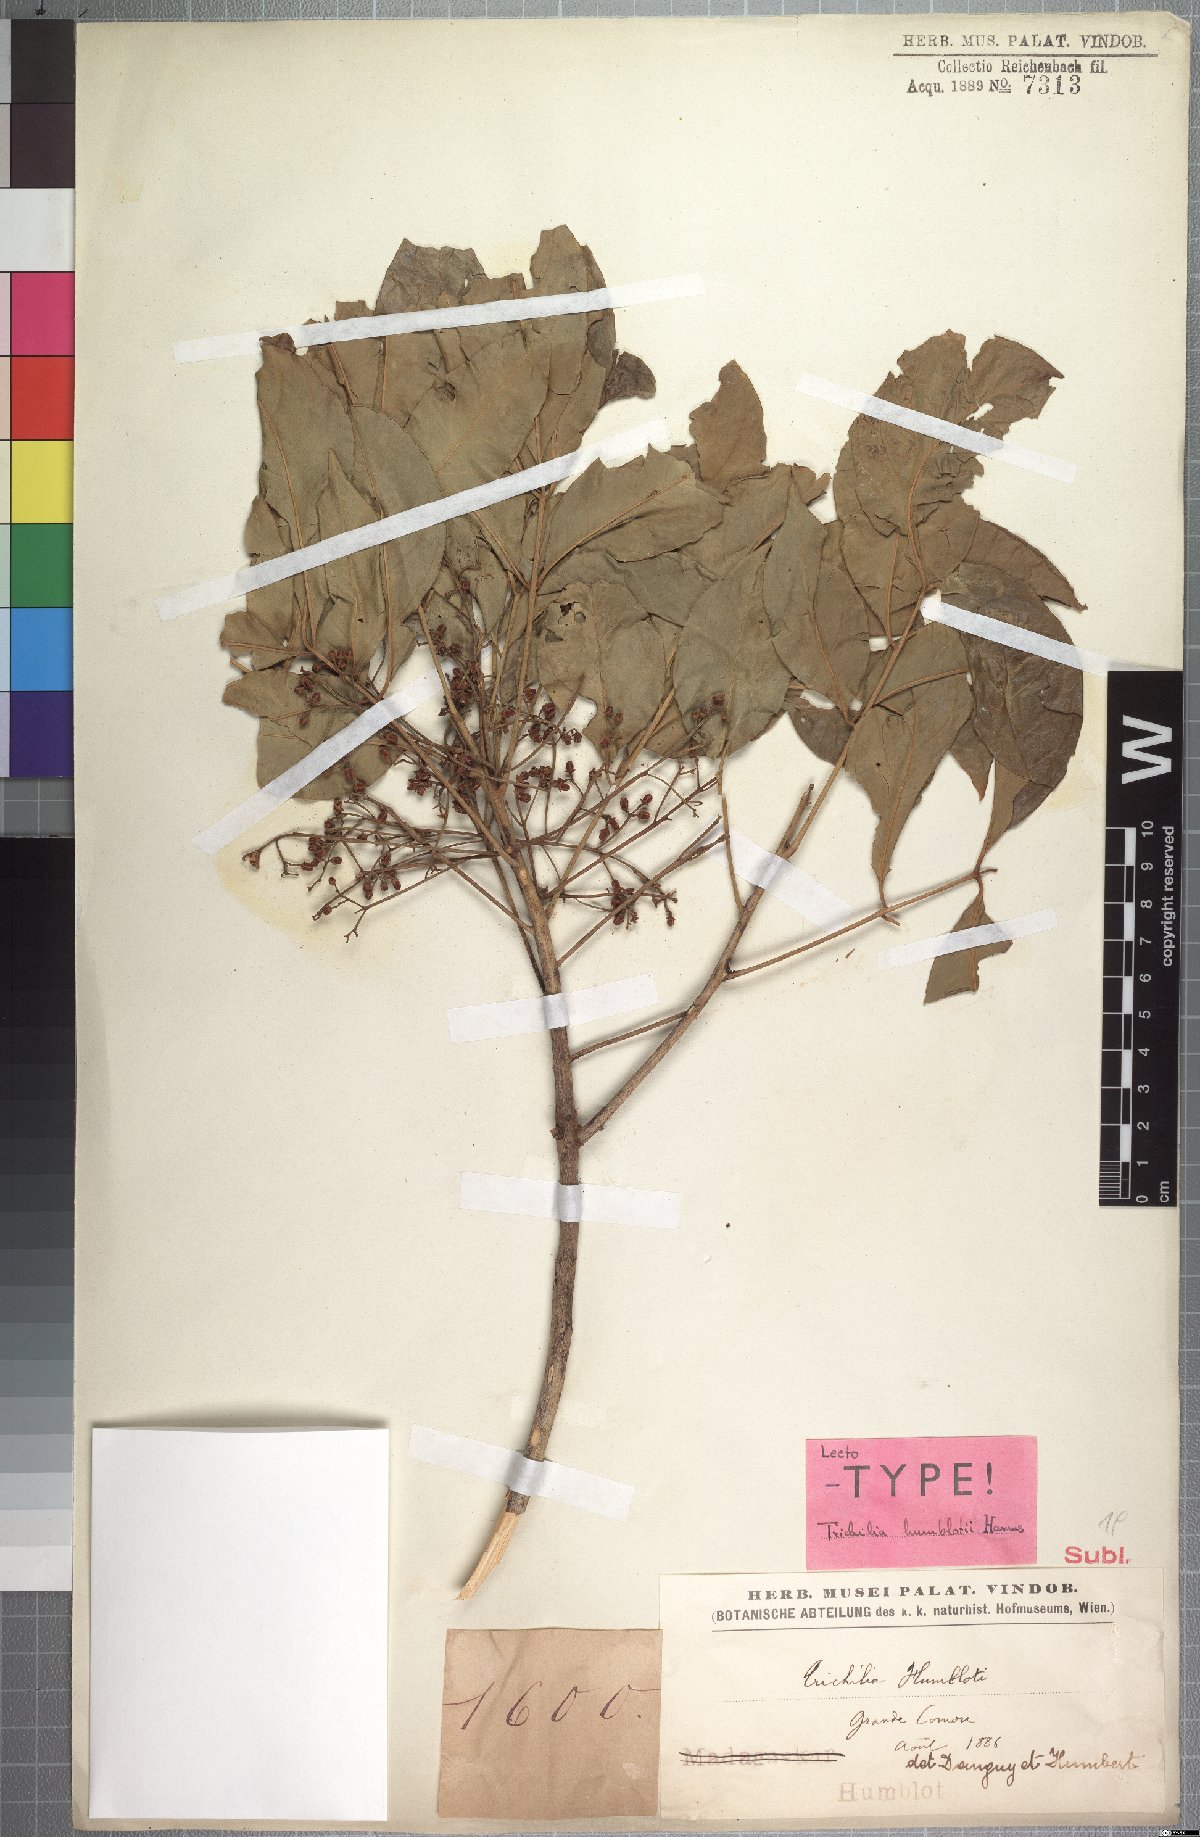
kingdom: Plantae
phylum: Tracheophyta
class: Magnoliopsida
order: Sapindales
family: Meliaceae
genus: Trichilia
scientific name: Trichilia humblotii
